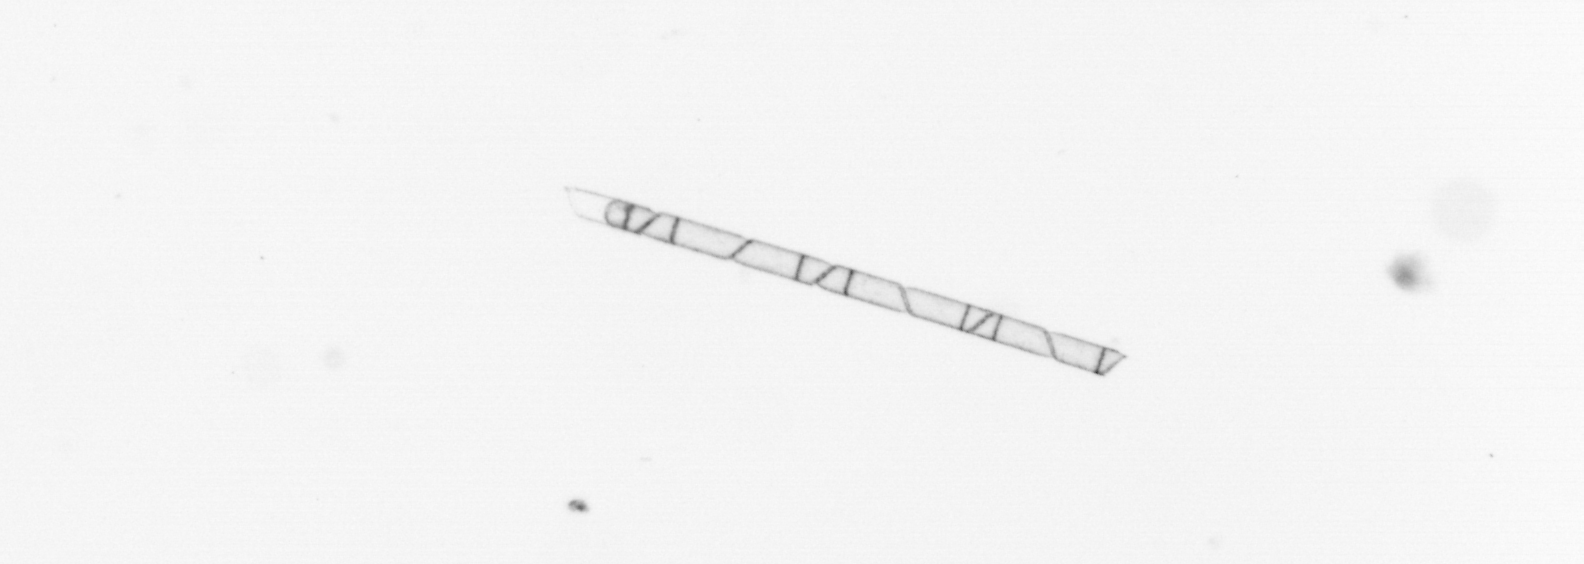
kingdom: Chromista
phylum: Ochrophyta
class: Bacillariophyceae
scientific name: Bacillariophyceae
